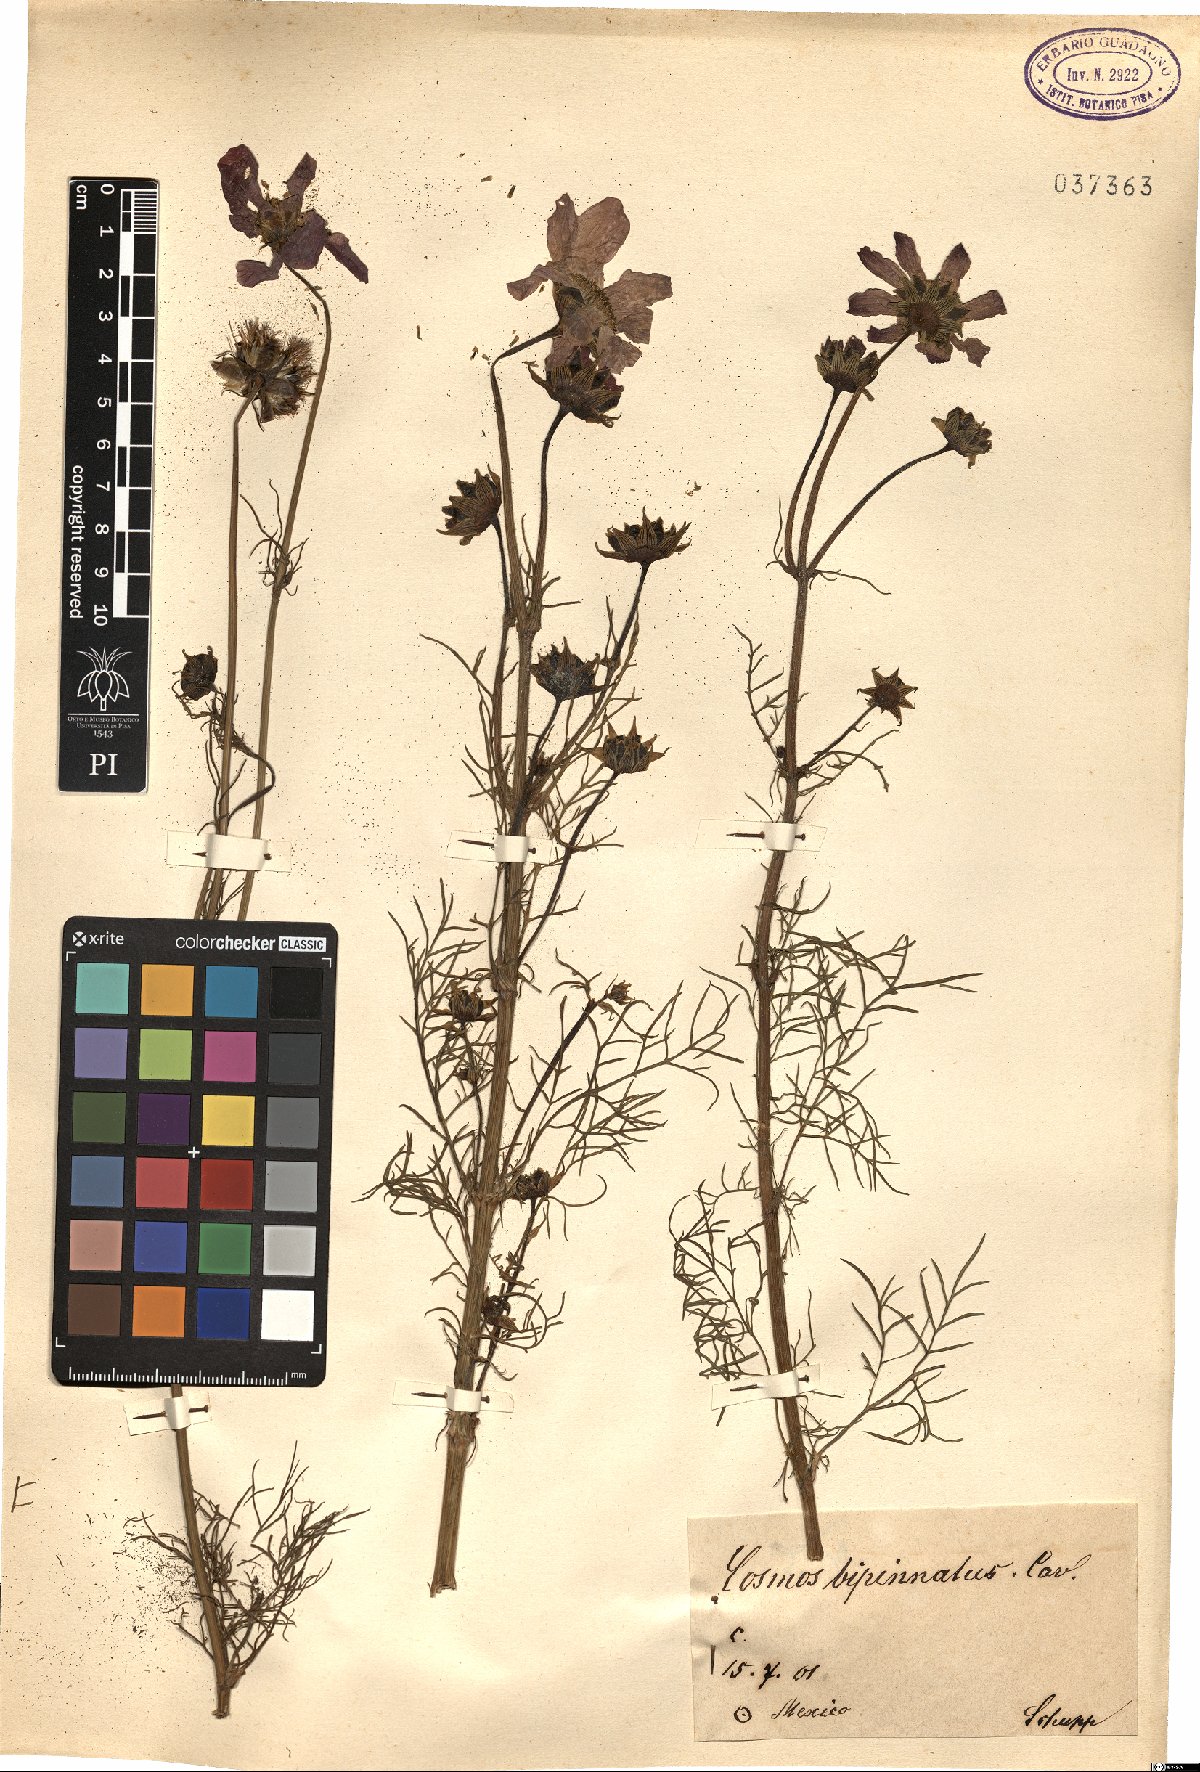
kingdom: Plantae
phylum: Tracheophyta
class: Magnoliopsida
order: Asterales
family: Asteraceae
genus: Cosmos
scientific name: Cosmos bipinnatus
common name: Garden cosmos
